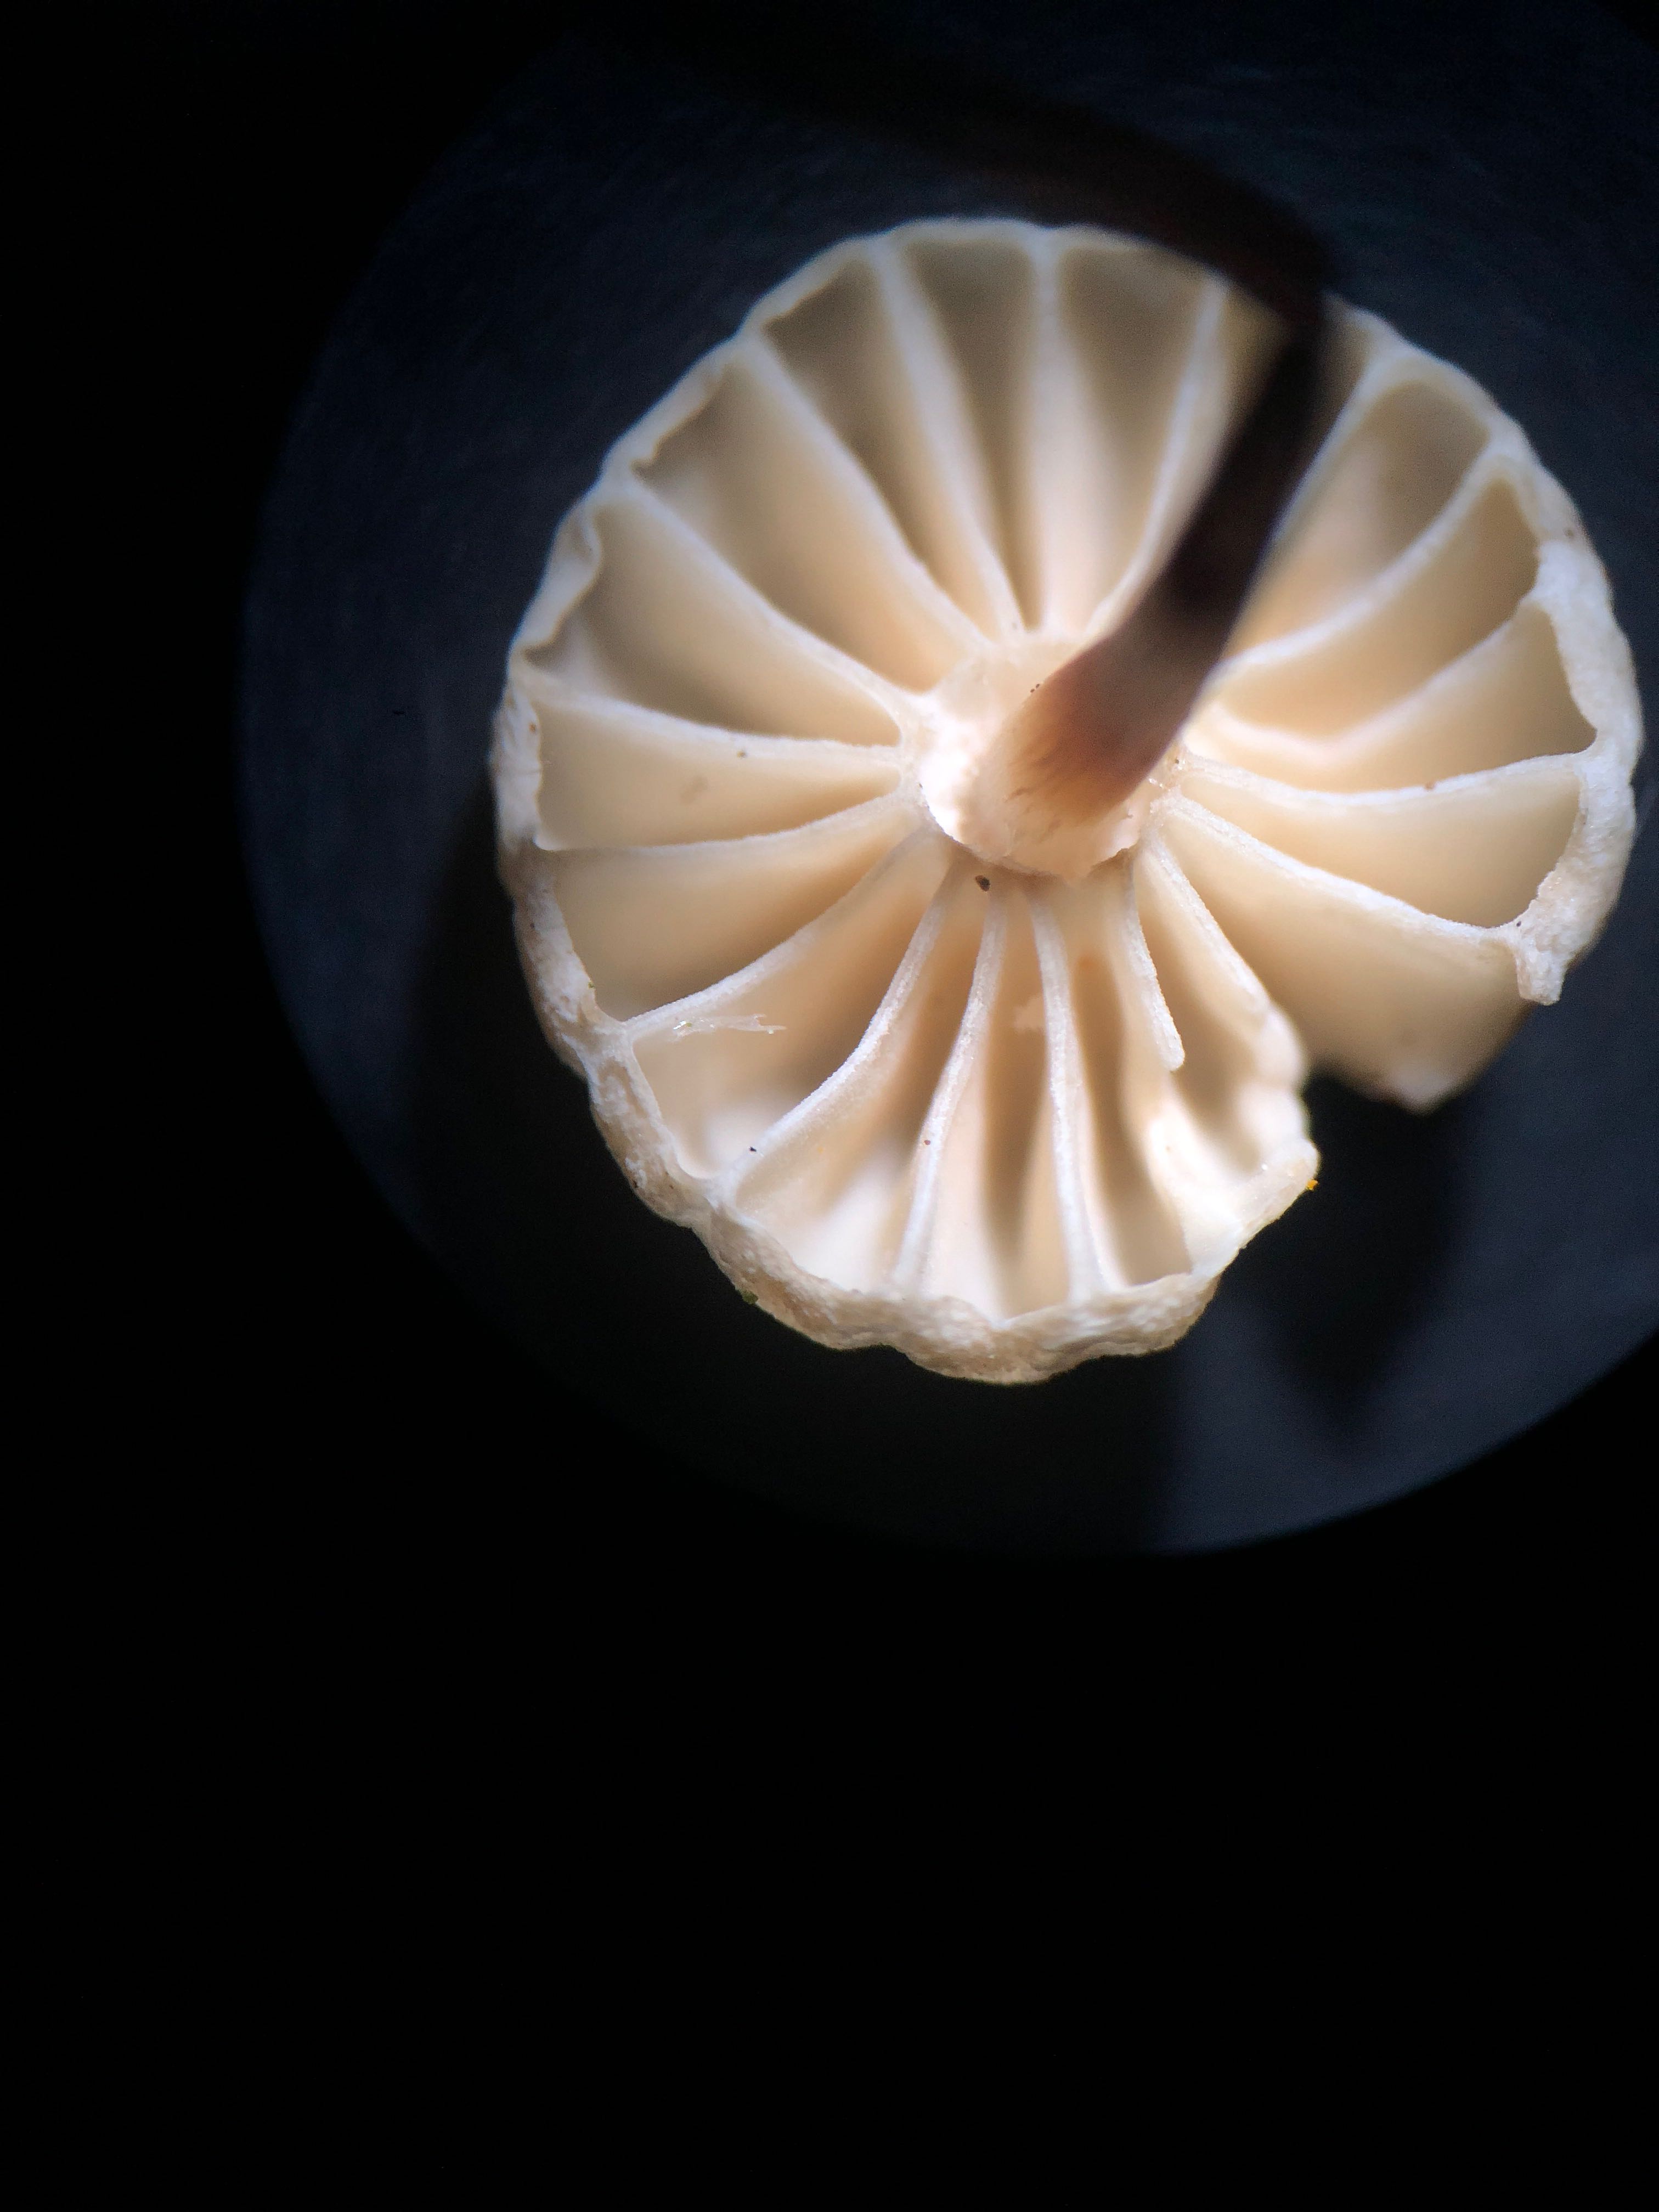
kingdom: Fungi
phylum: Basidiomycota
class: Agaricomycetes
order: Agaricales
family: Marasmiaceae
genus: Marasmius
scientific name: Marasmius rotula
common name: hjul-bruskhat
